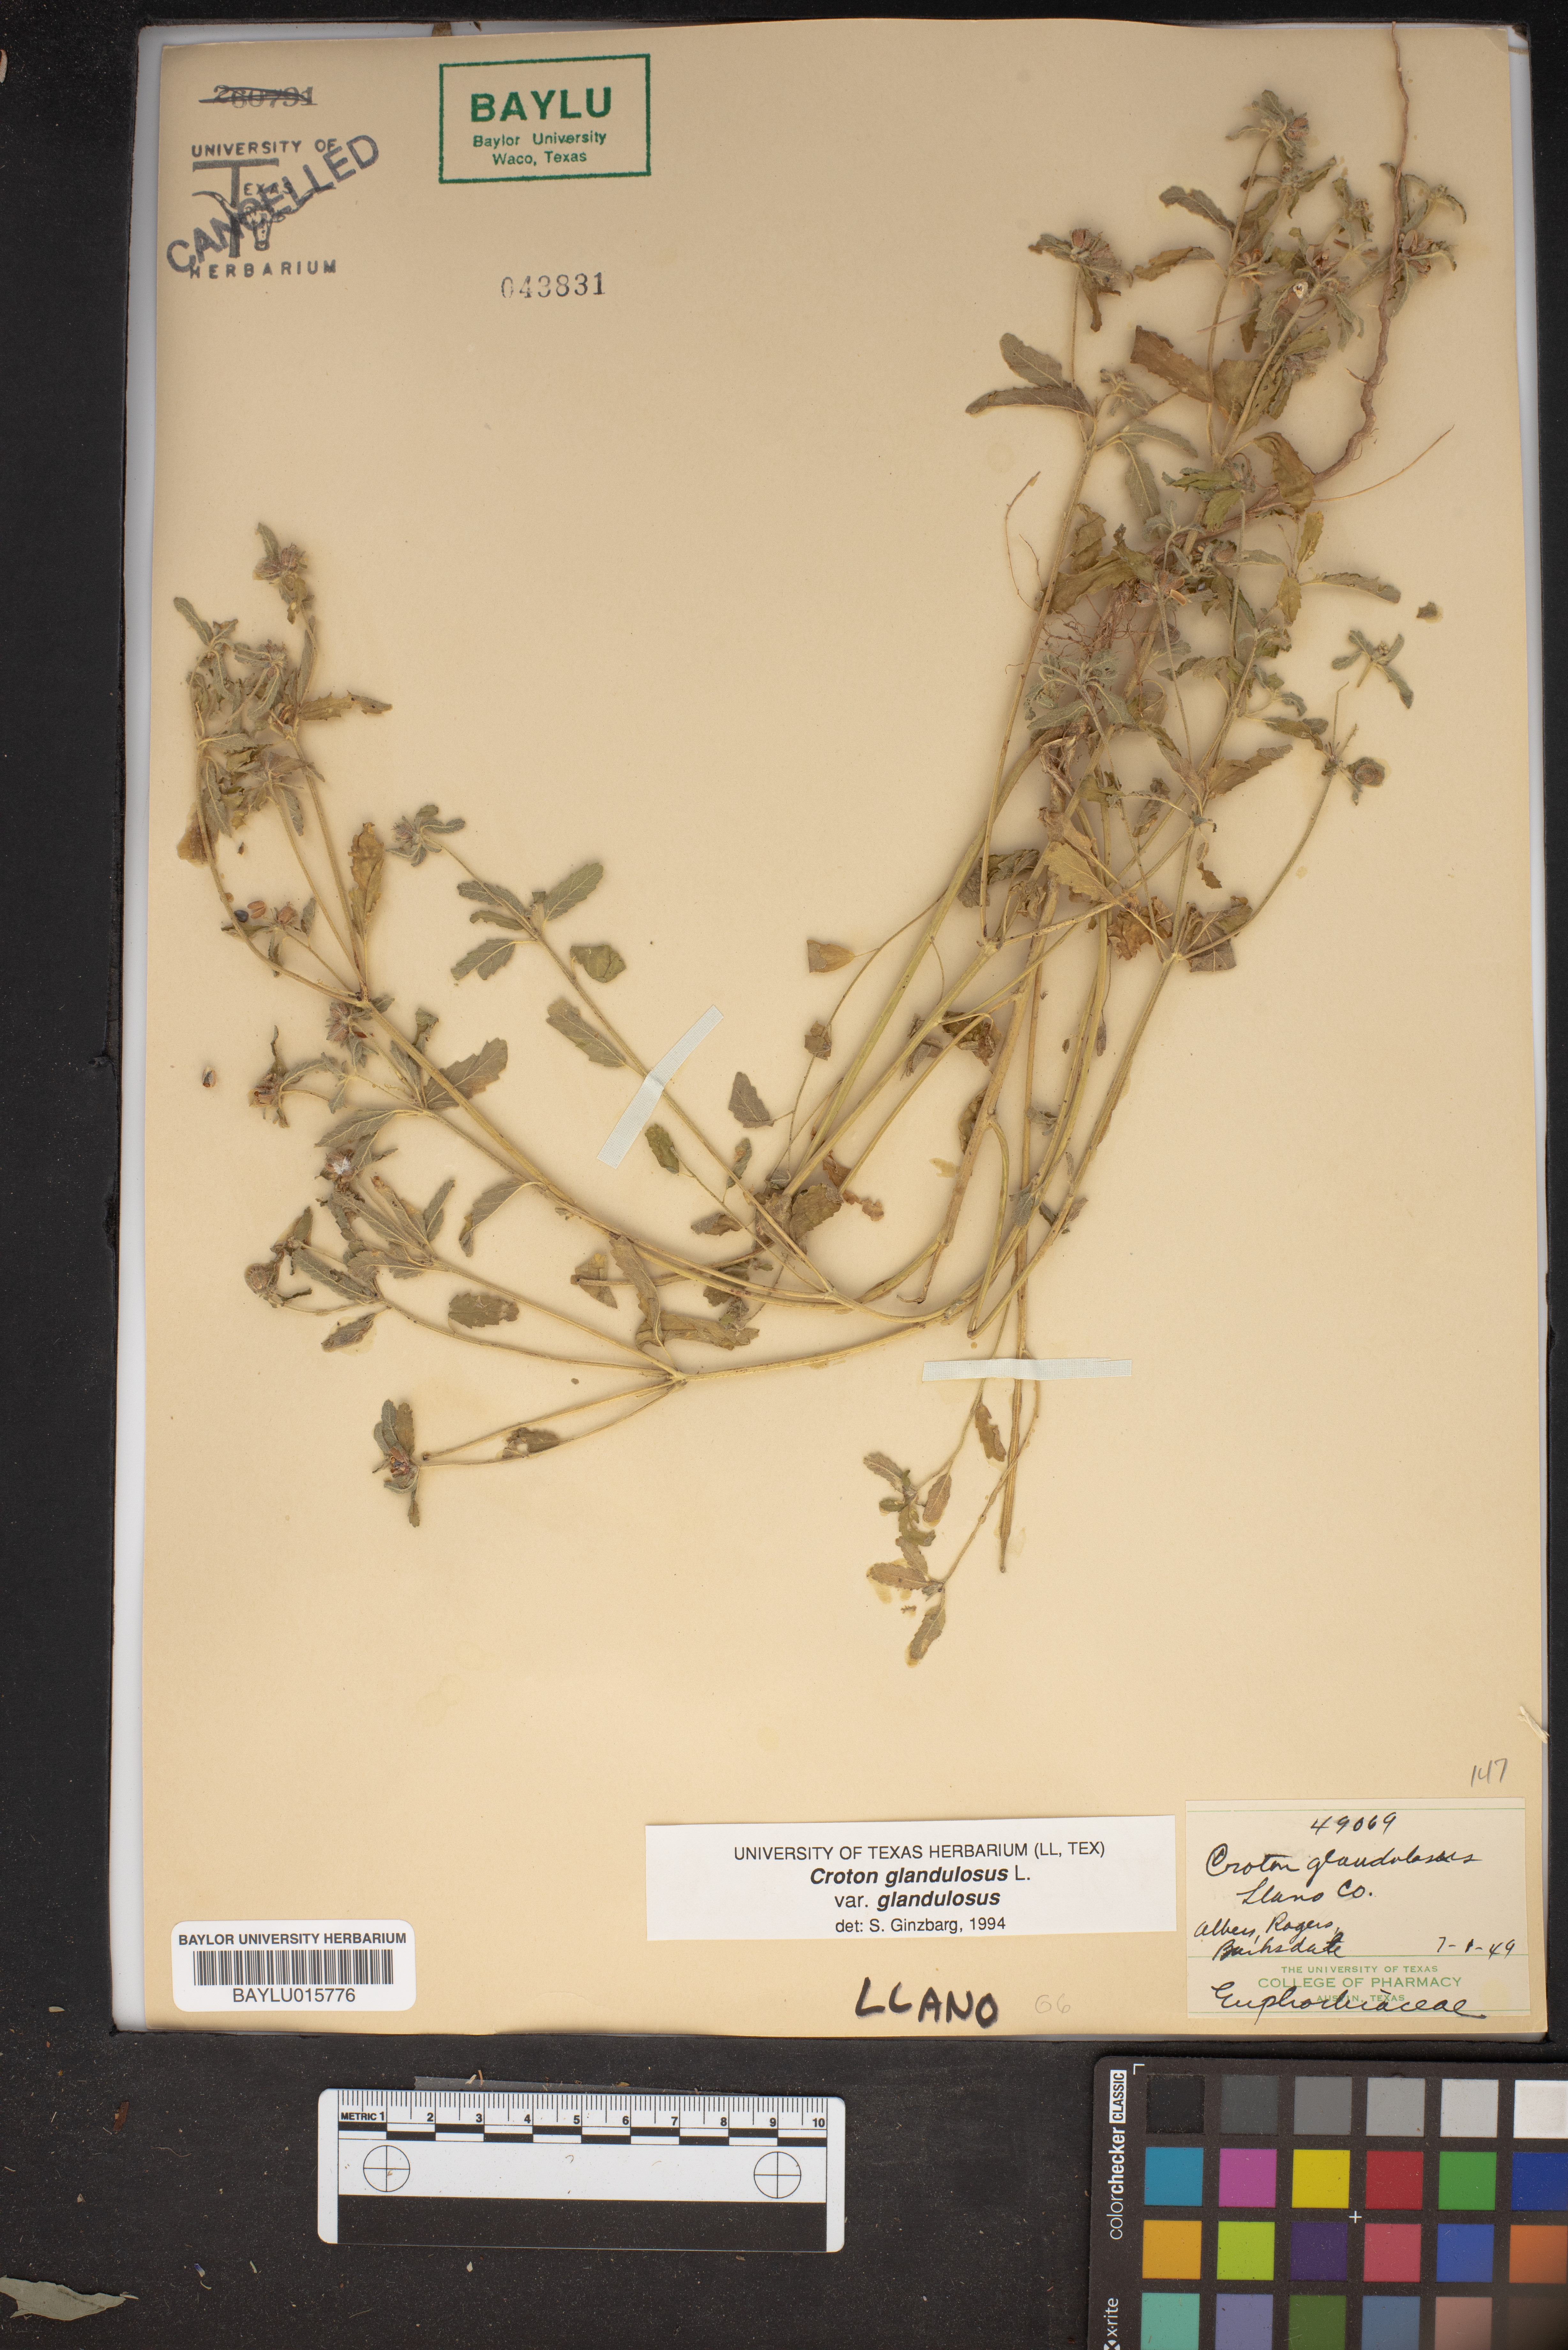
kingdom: Plantae
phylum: Tracheophyta
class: Magnoliopsida
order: Malpighiales
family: Euphorbiaceae
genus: Croton
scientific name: Croton glandulosus
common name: Tropic croton
